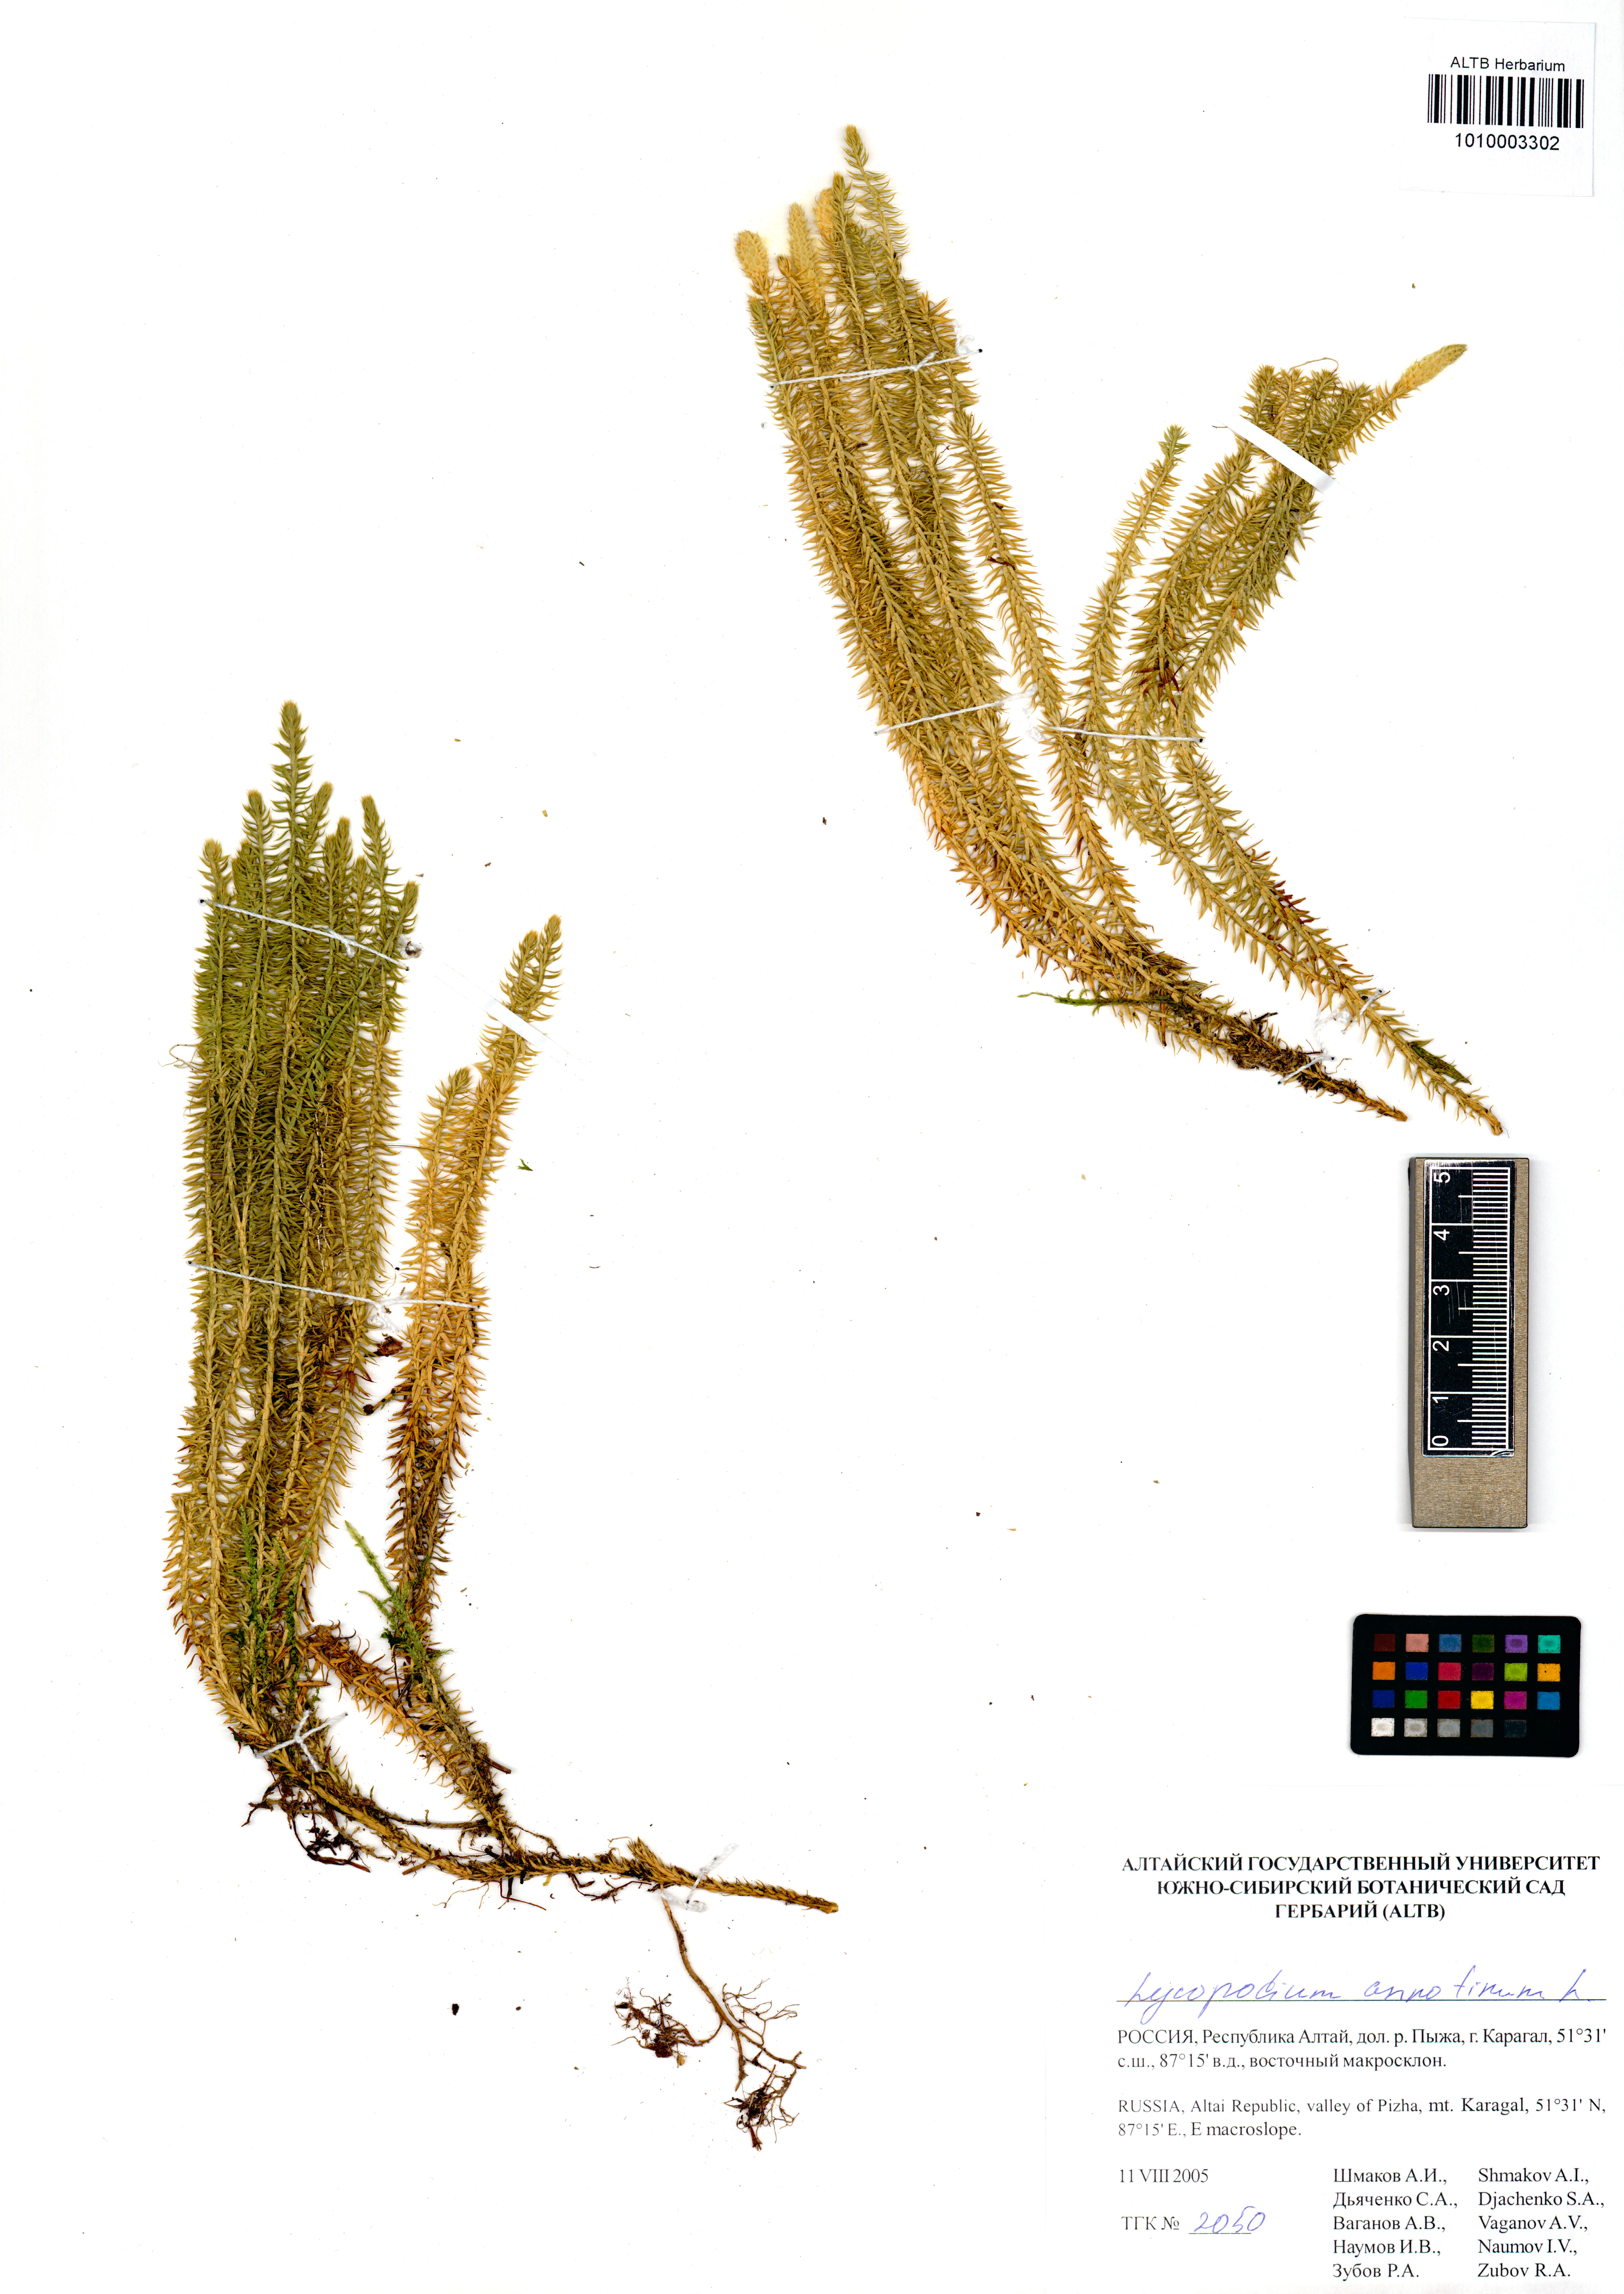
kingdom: Plantae
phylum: Tracheophyta
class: Lycopodiopsida
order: Lycopodiales
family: Lycopodiaceae
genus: Spinulum
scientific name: Spinulum annotinum
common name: Interrupted club-moss
